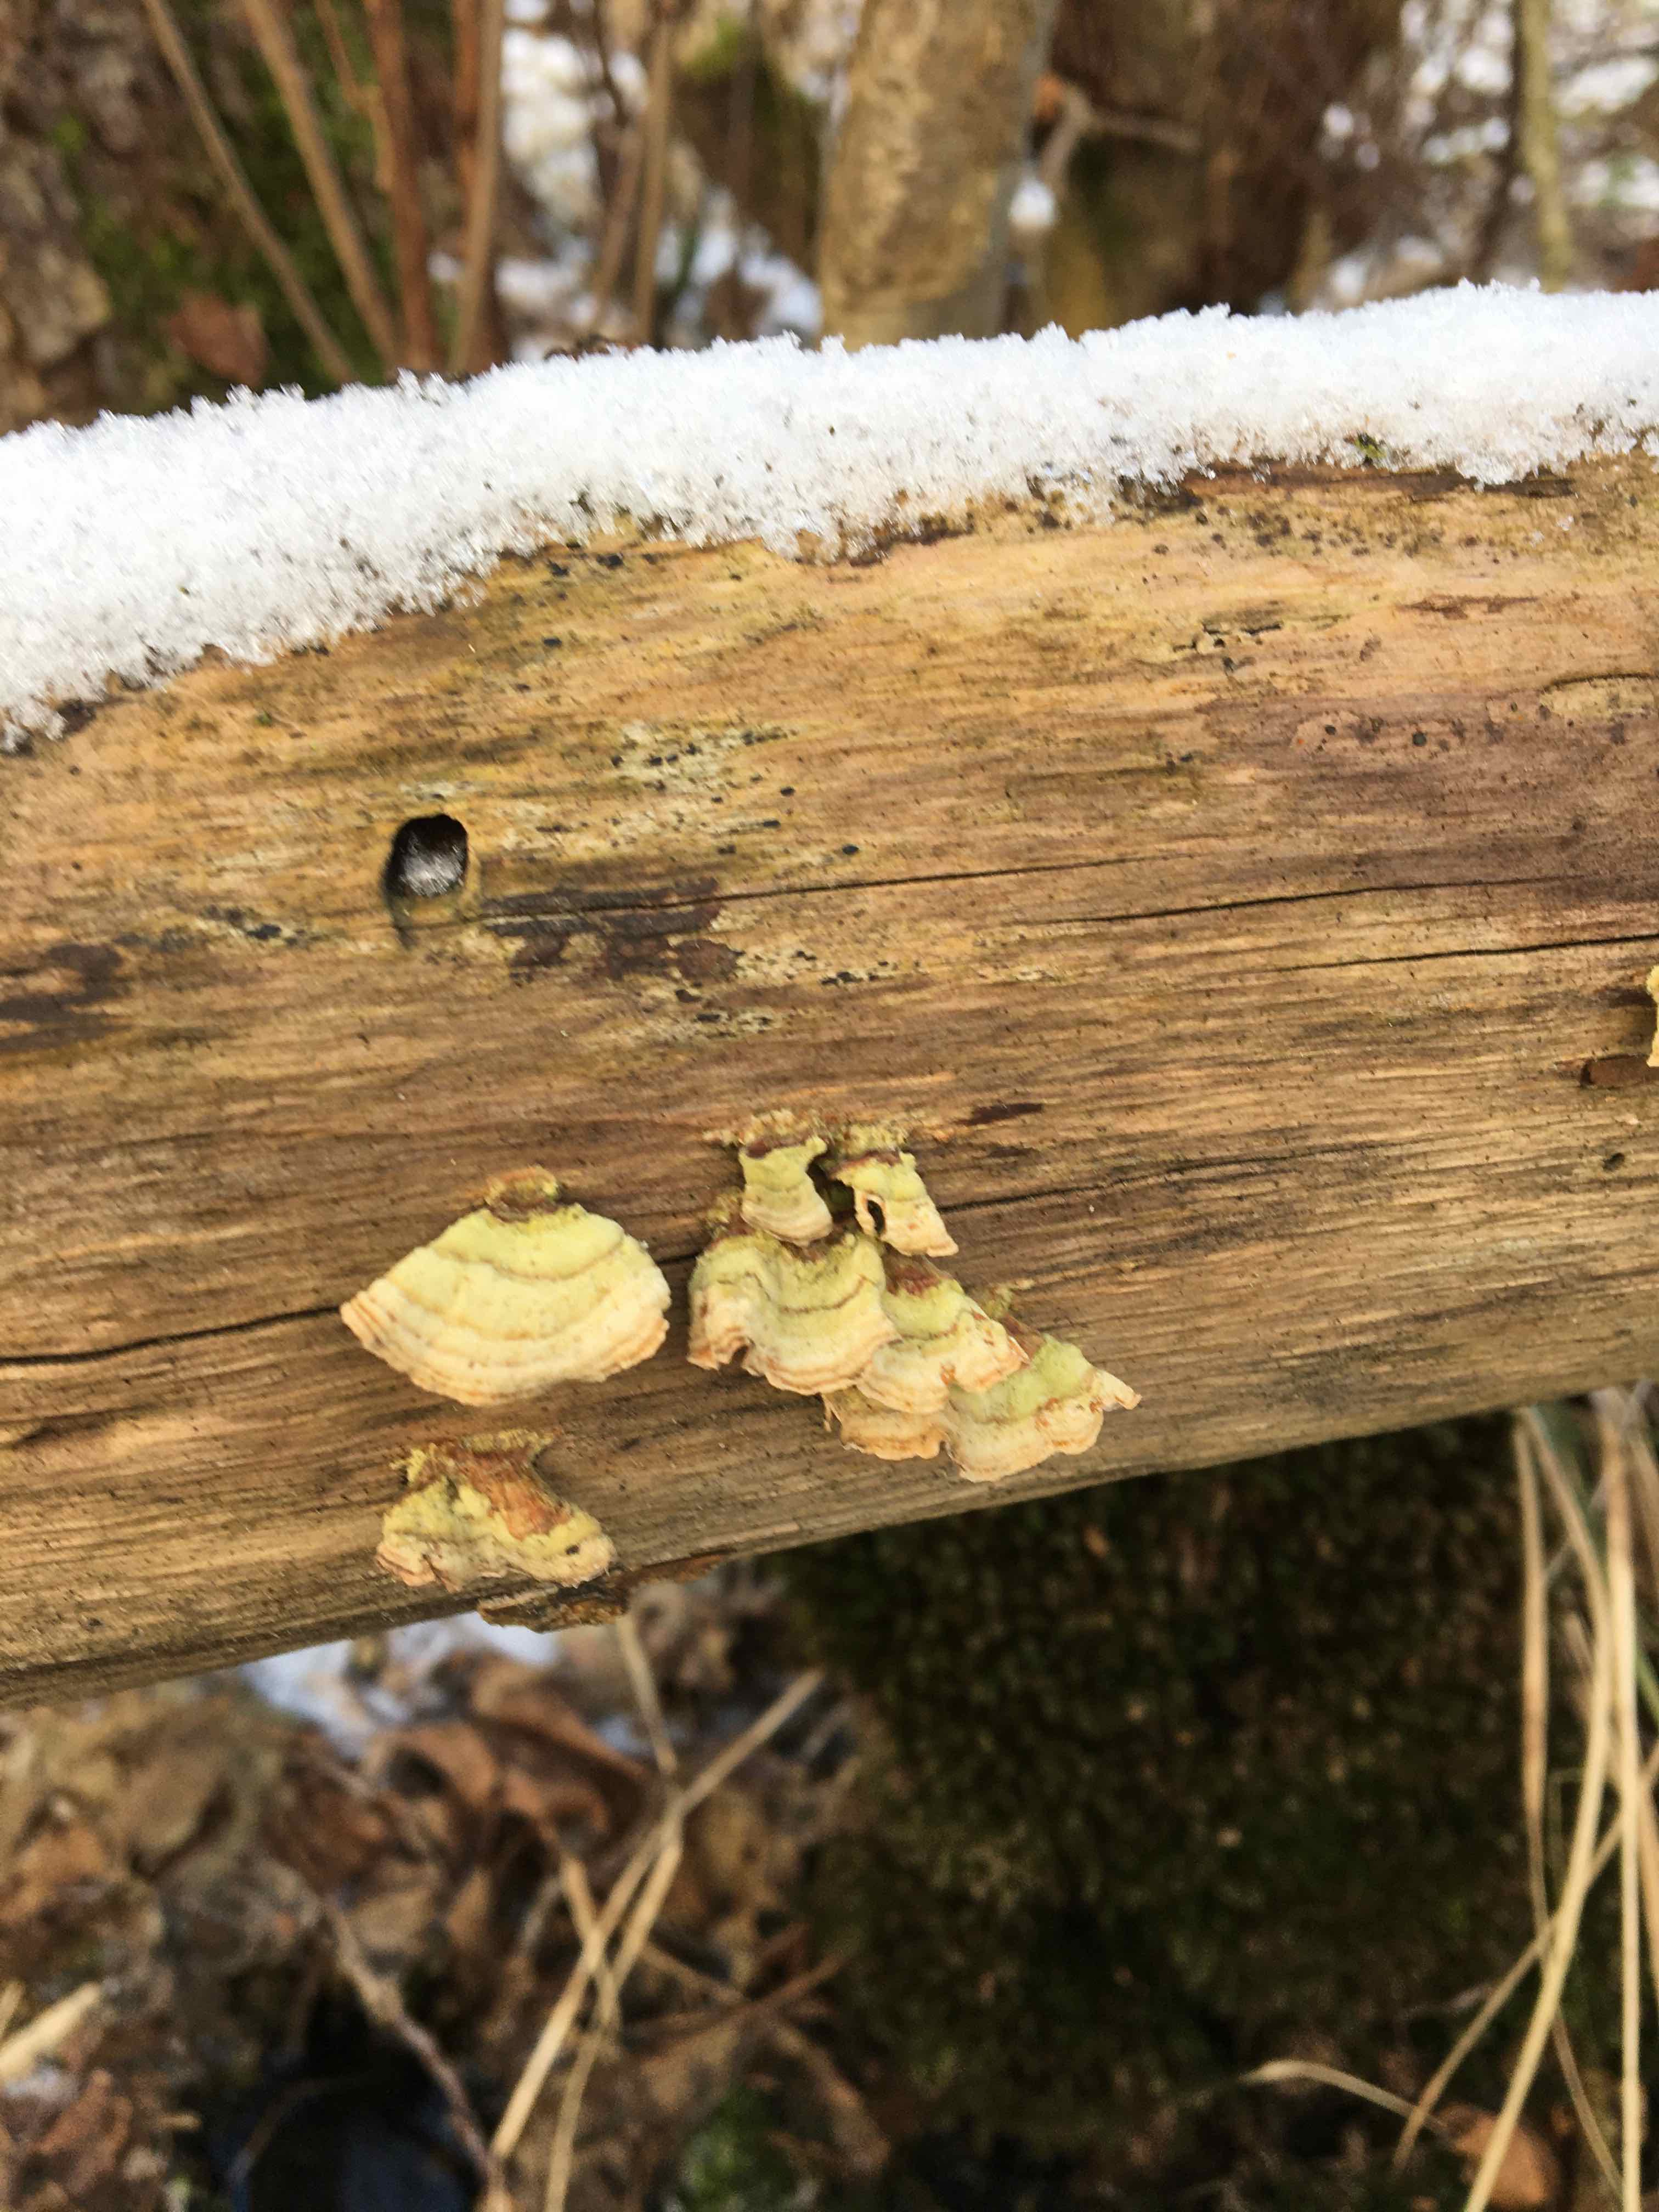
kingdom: Fungi
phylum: Basidiomycota
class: Agaricomycetes
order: Russulales
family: Stereaceae
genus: Stereum
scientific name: Stereum subtomentosum
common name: smuk lædersvamp
